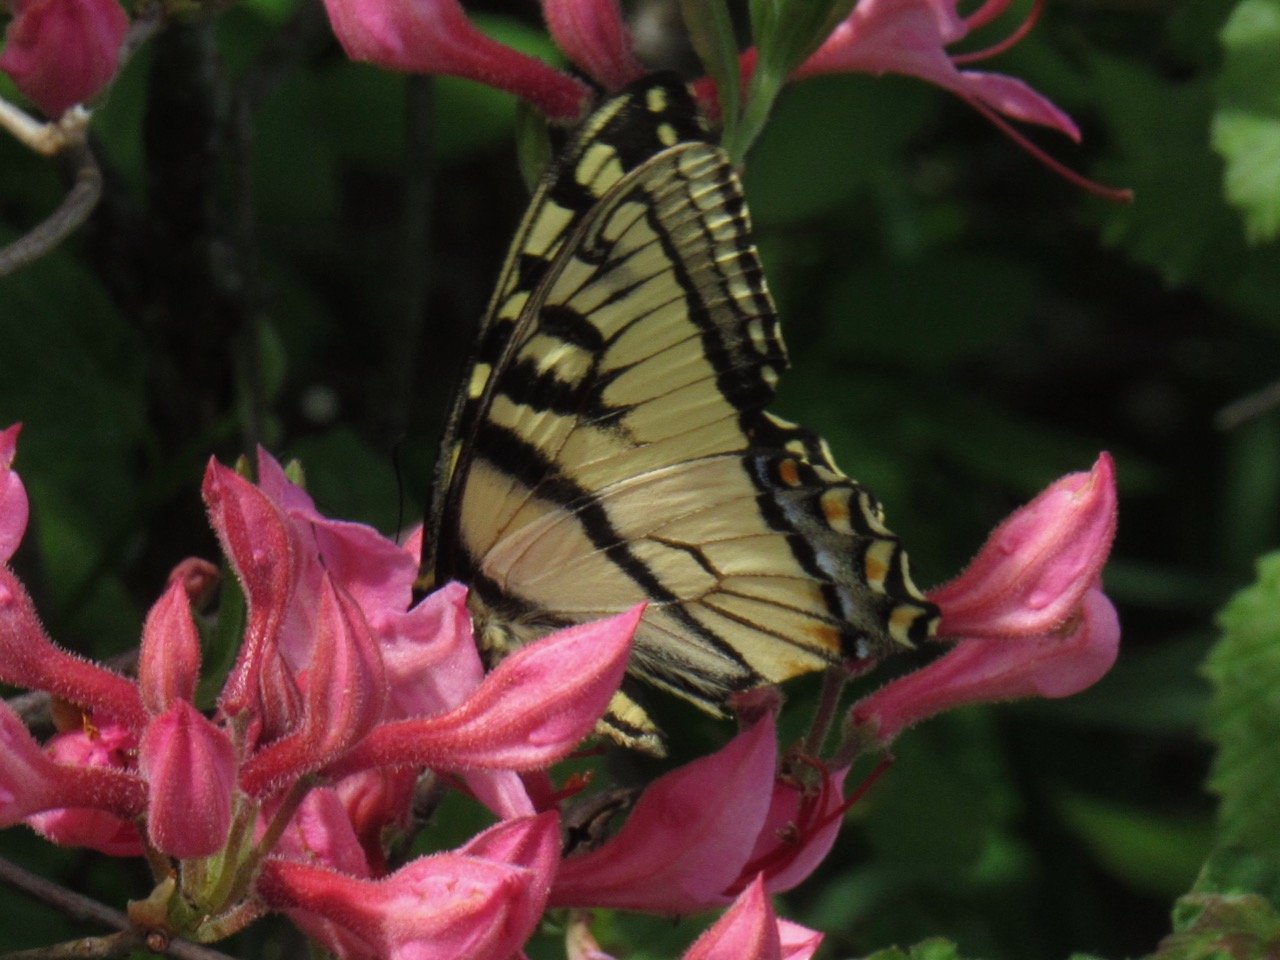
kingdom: Animalia
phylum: Arthropoda
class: Insecta
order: Lepidoptera
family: Papilionidae
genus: Pterourus
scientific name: Pterourus canadensis
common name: Canadian Tiger Swallowtail
